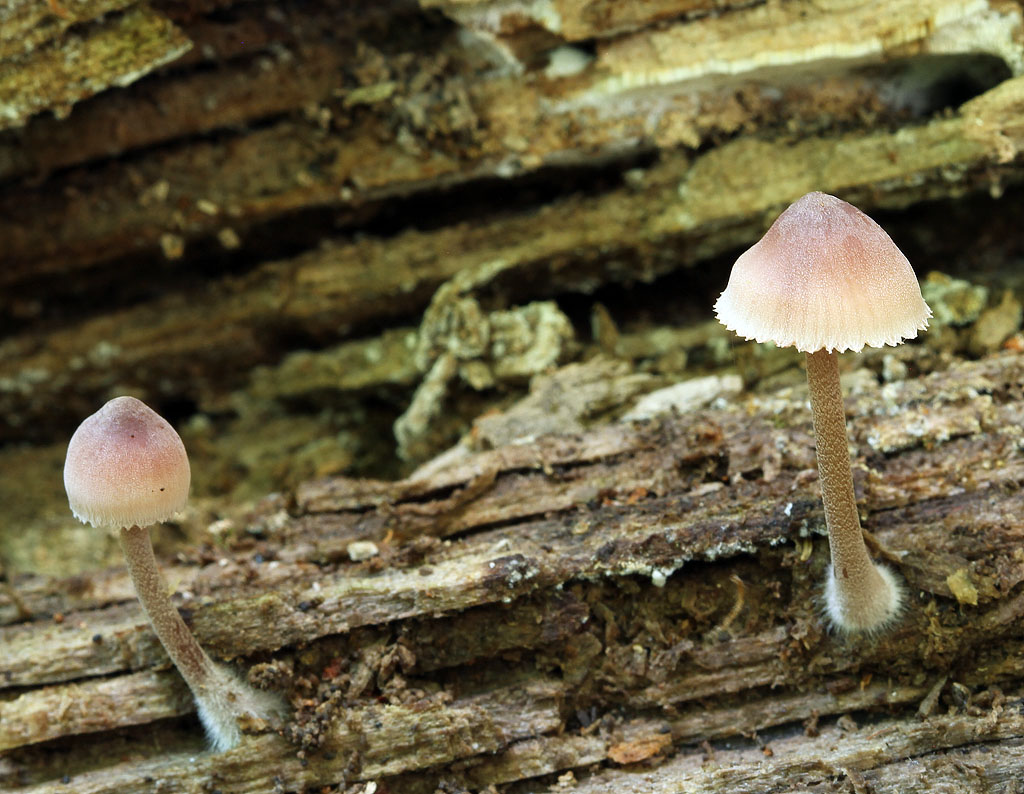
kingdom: Fungi
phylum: Basidiomycota
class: Agaricomycetes
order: Agaricales
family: Mycenaceae
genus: Mycena
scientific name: Mycena haematopus
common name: blødende huesvamp
